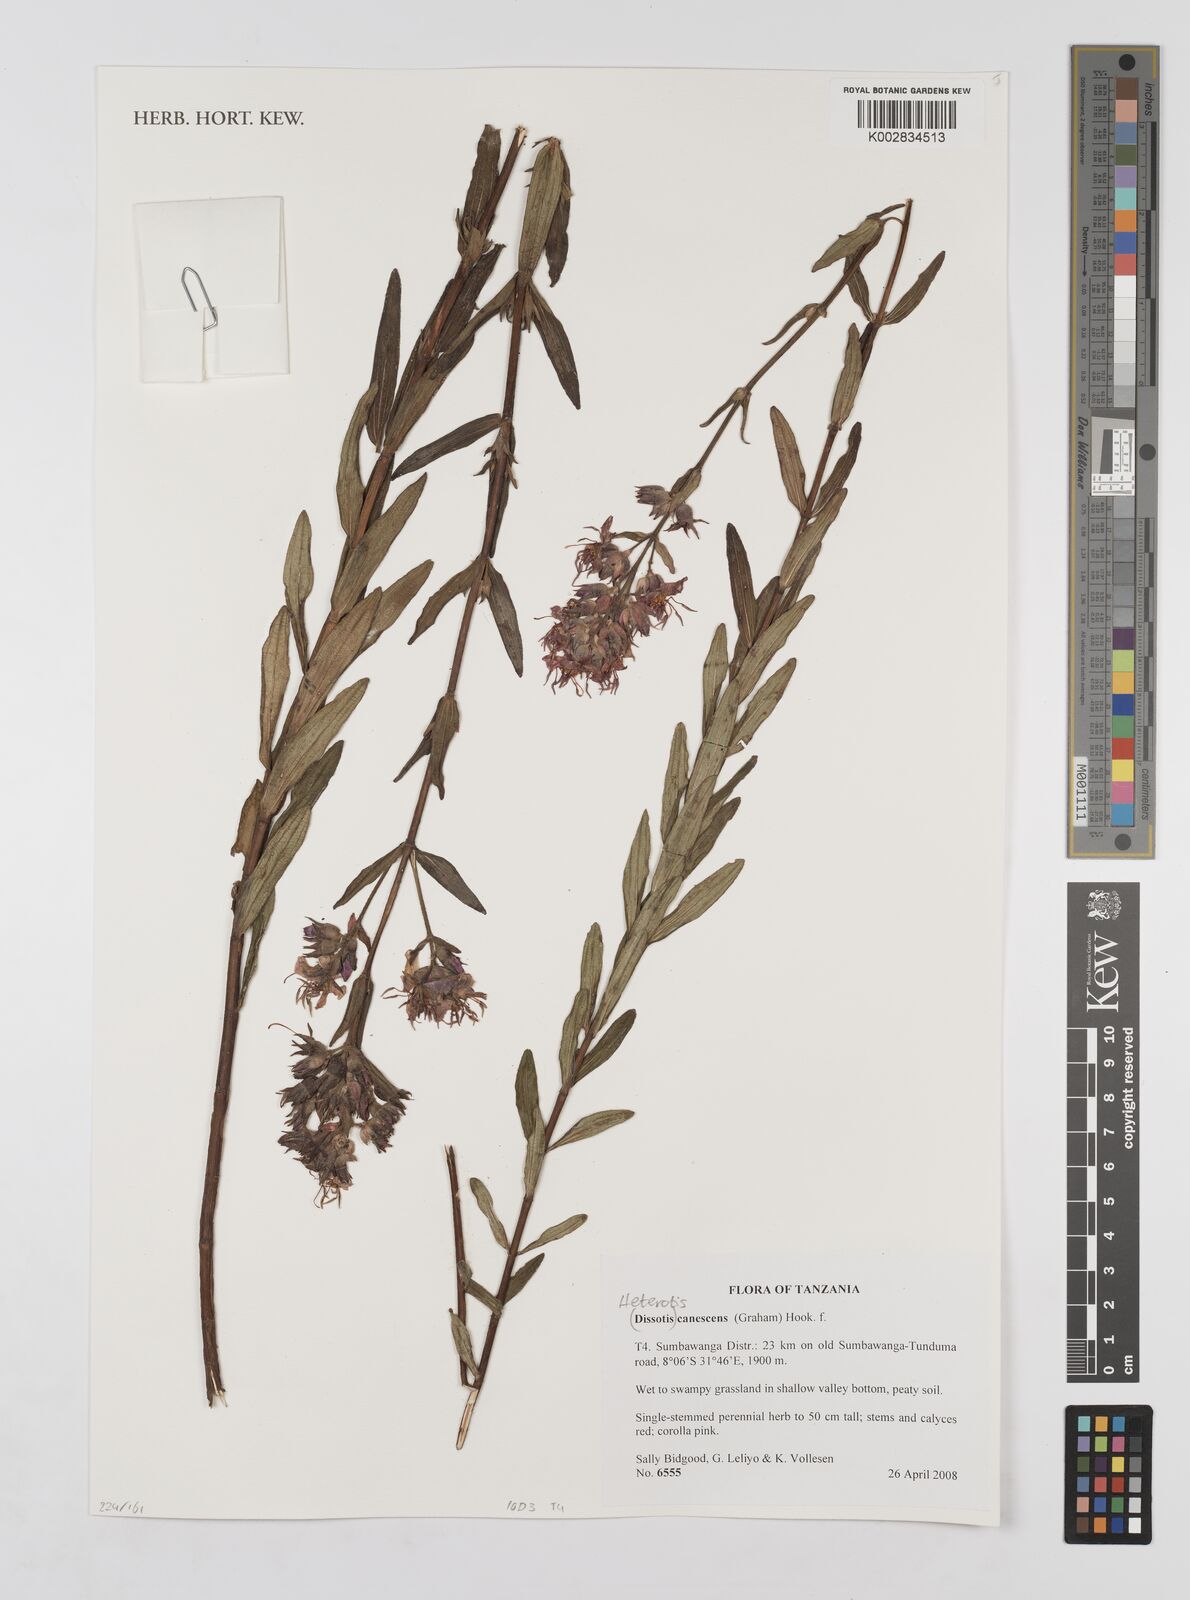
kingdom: Plantae
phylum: Tracheophyta
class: Magnoliopsida
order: Myrtales
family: Melastomataceae
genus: Argyrella
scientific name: Argyrella canescens
